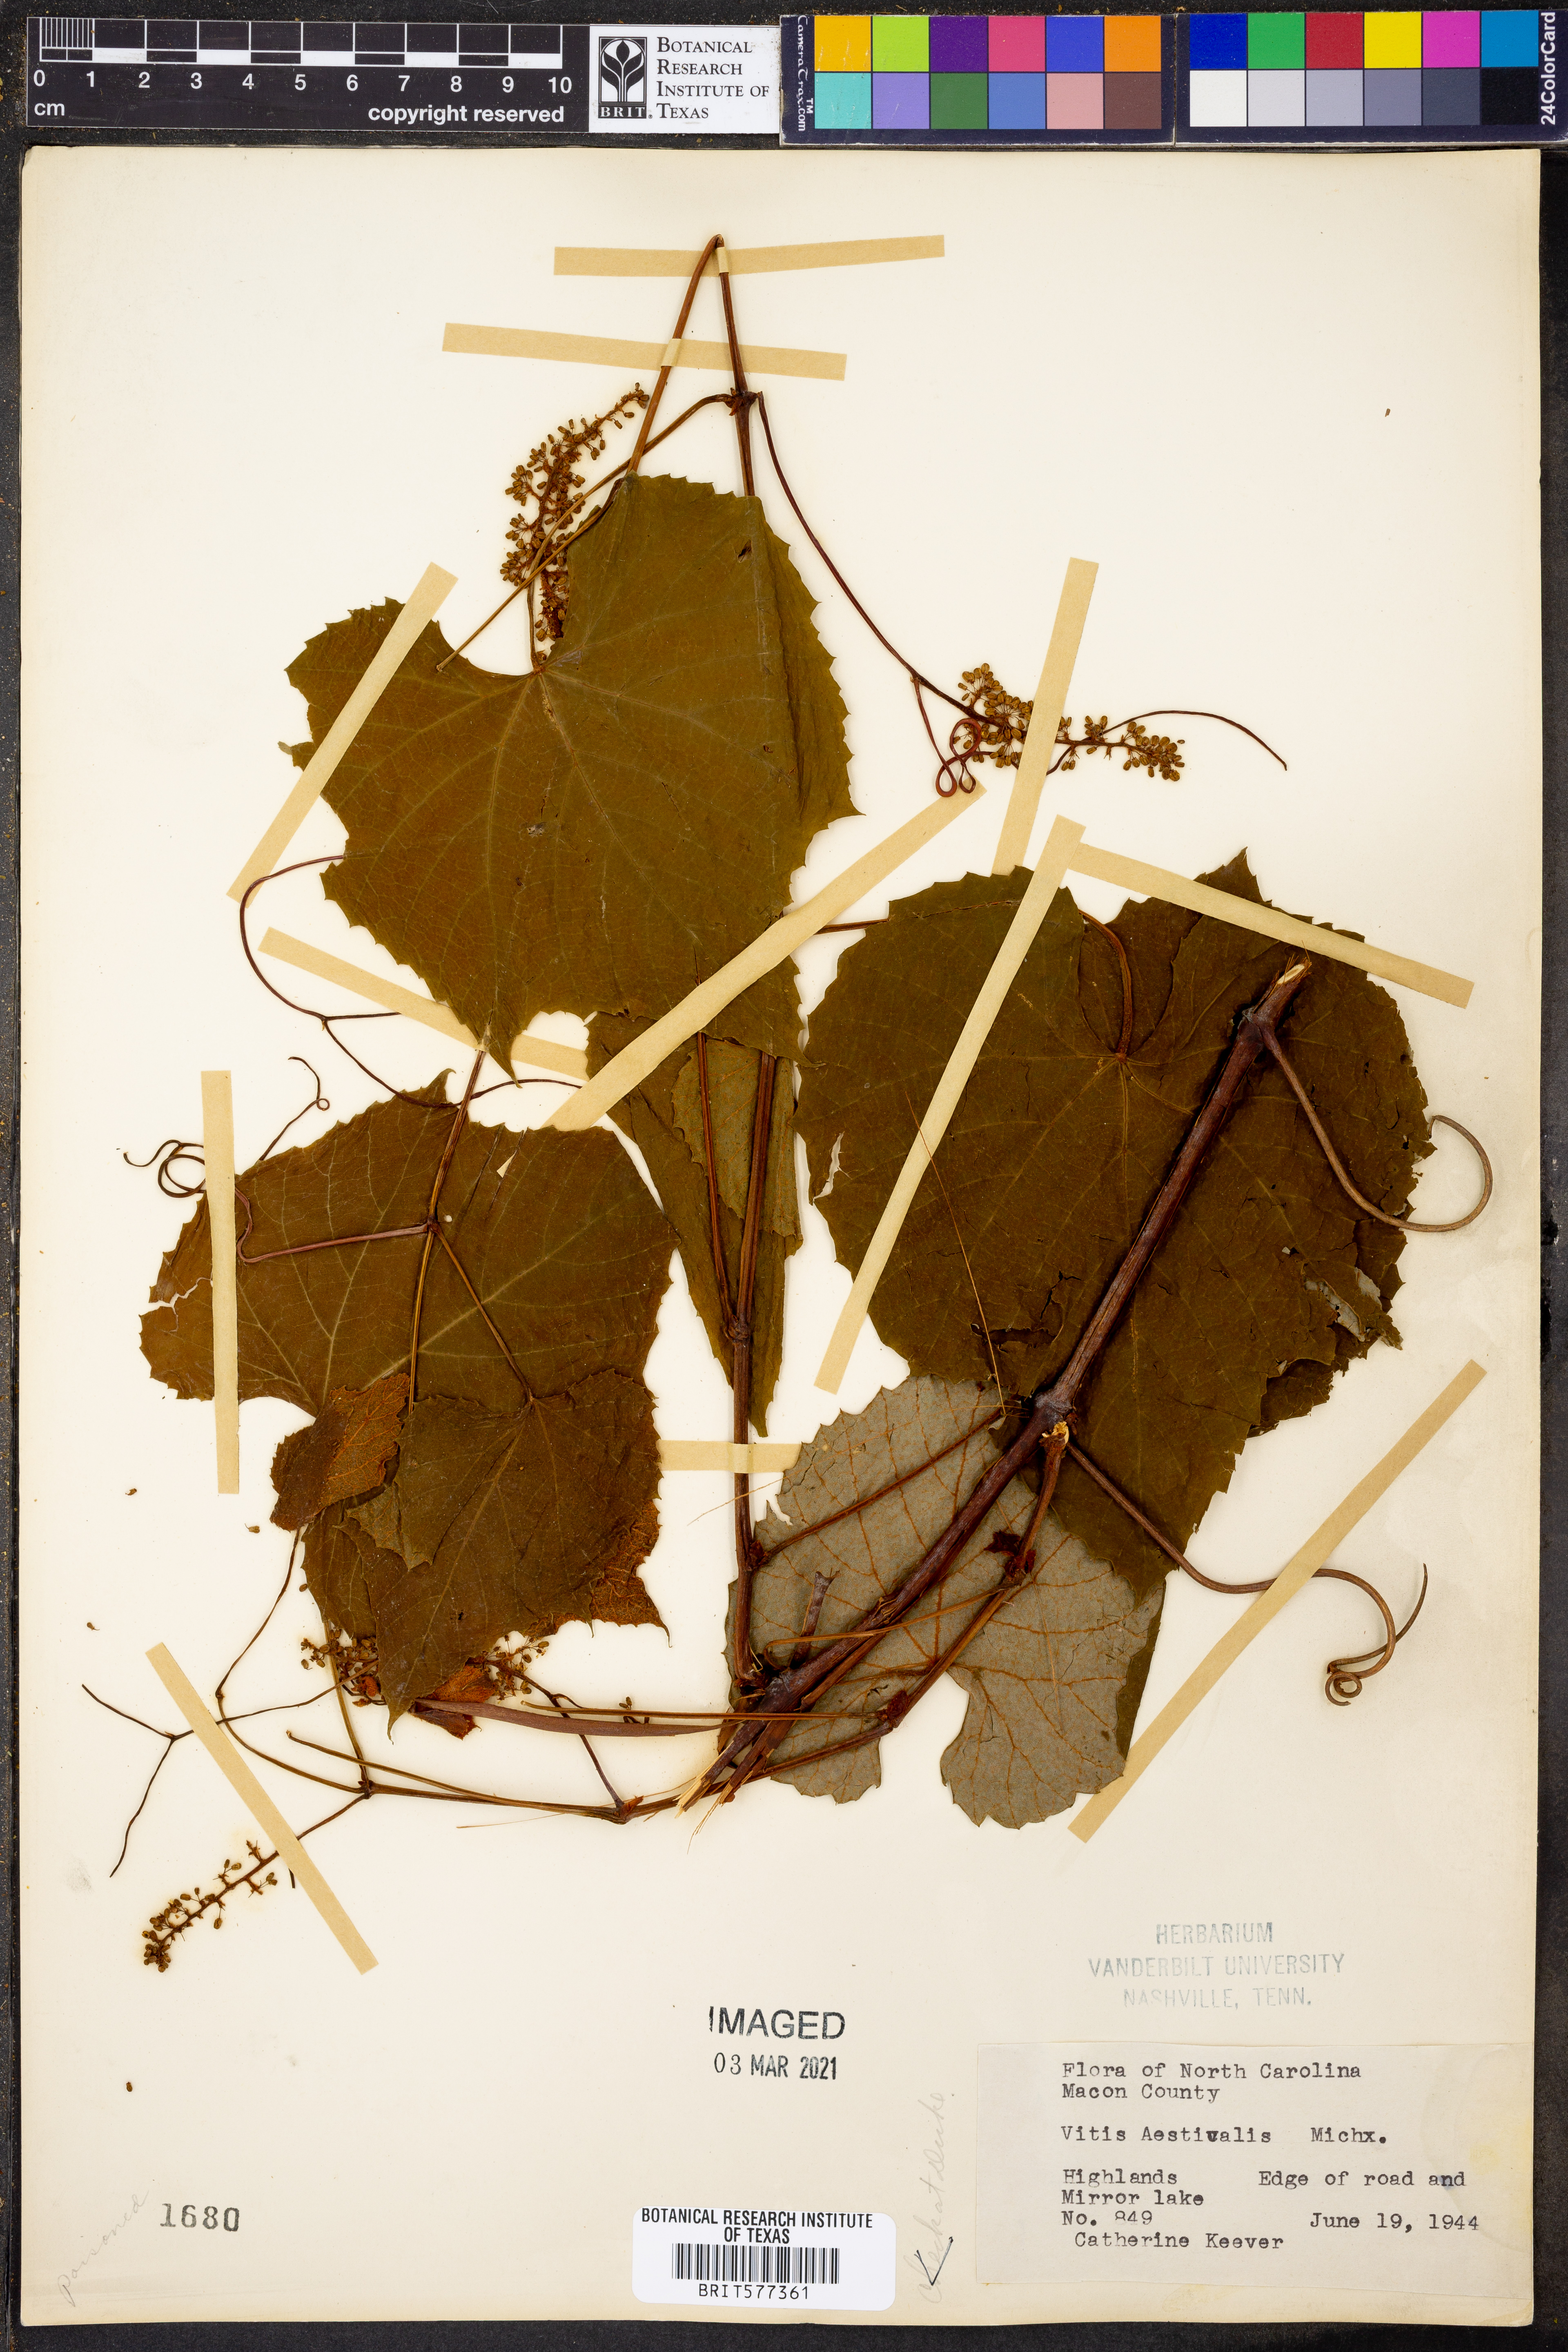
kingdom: Plantae
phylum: Tracheophyta
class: Magnoliopsida
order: Vitales
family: Vitaceae
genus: Vitis
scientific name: Vitis aestivalis
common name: Pigeon grape
